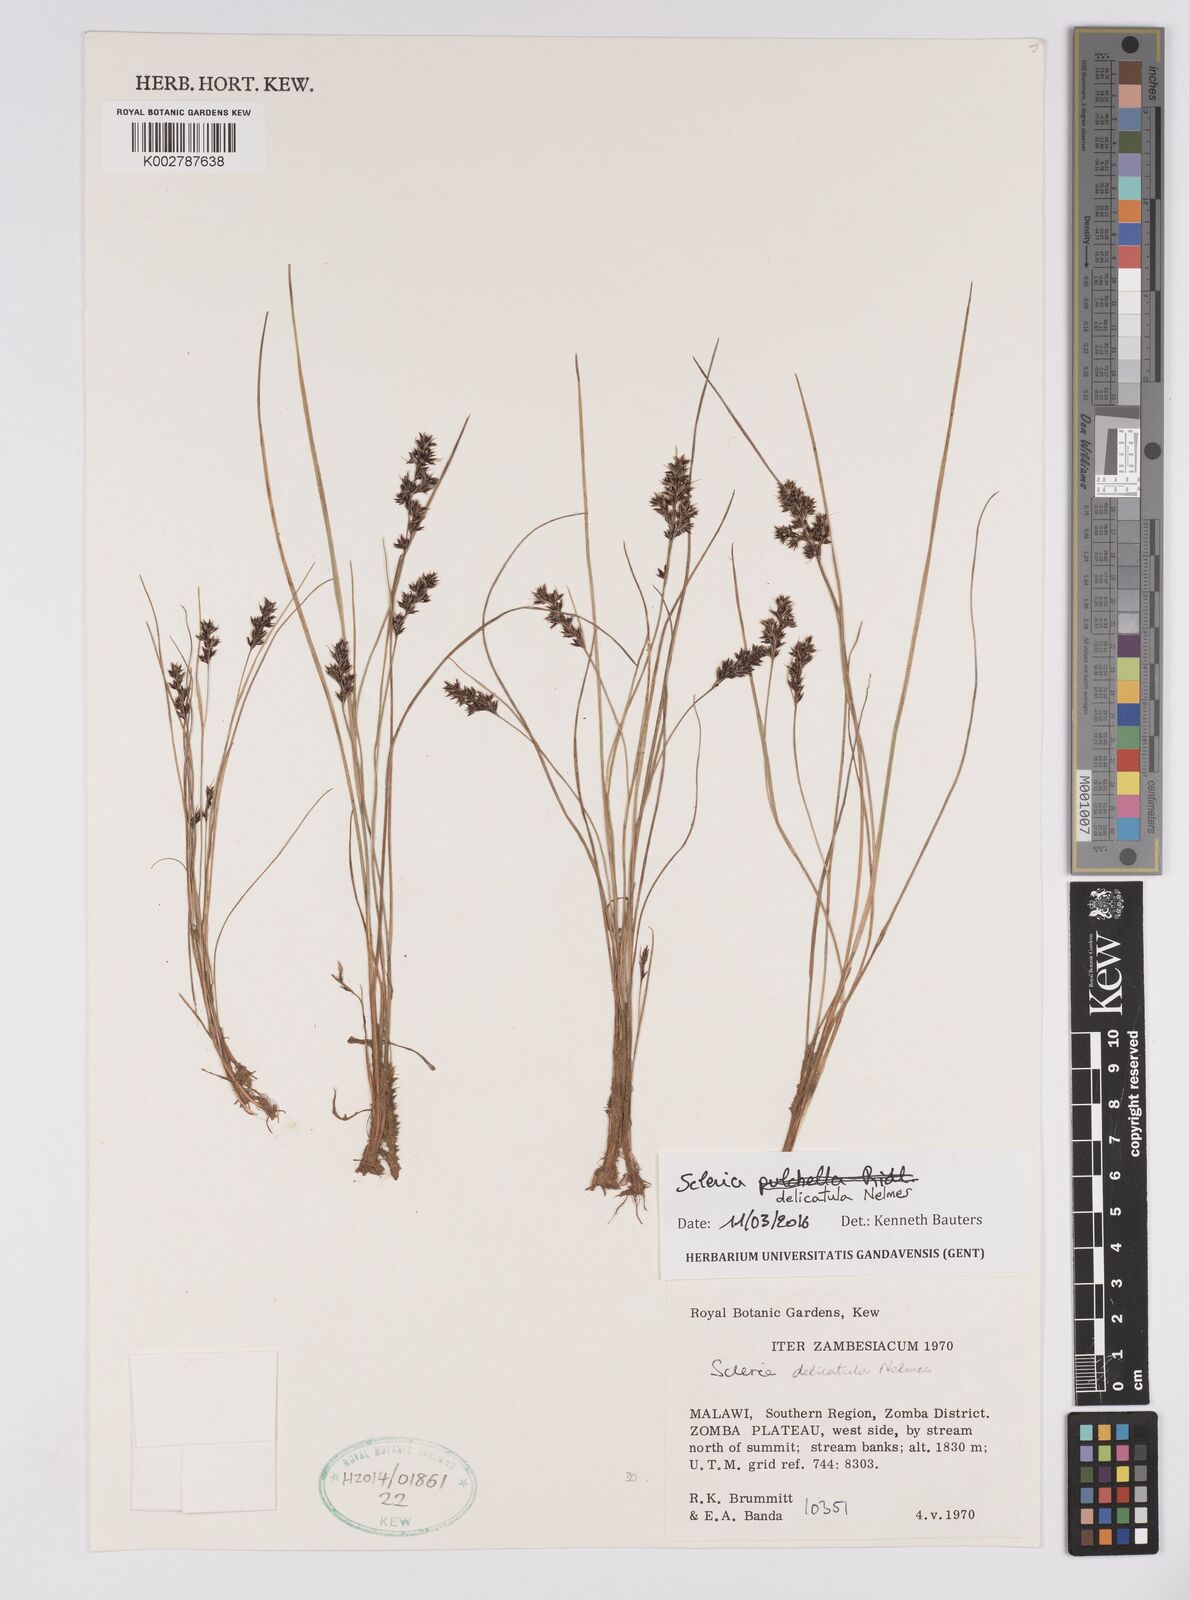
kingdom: Plantae
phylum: Tracheophyta
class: Liliopsida
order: Poales
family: Cyperaceae
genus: Scleria
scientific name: Scleria delicatula
